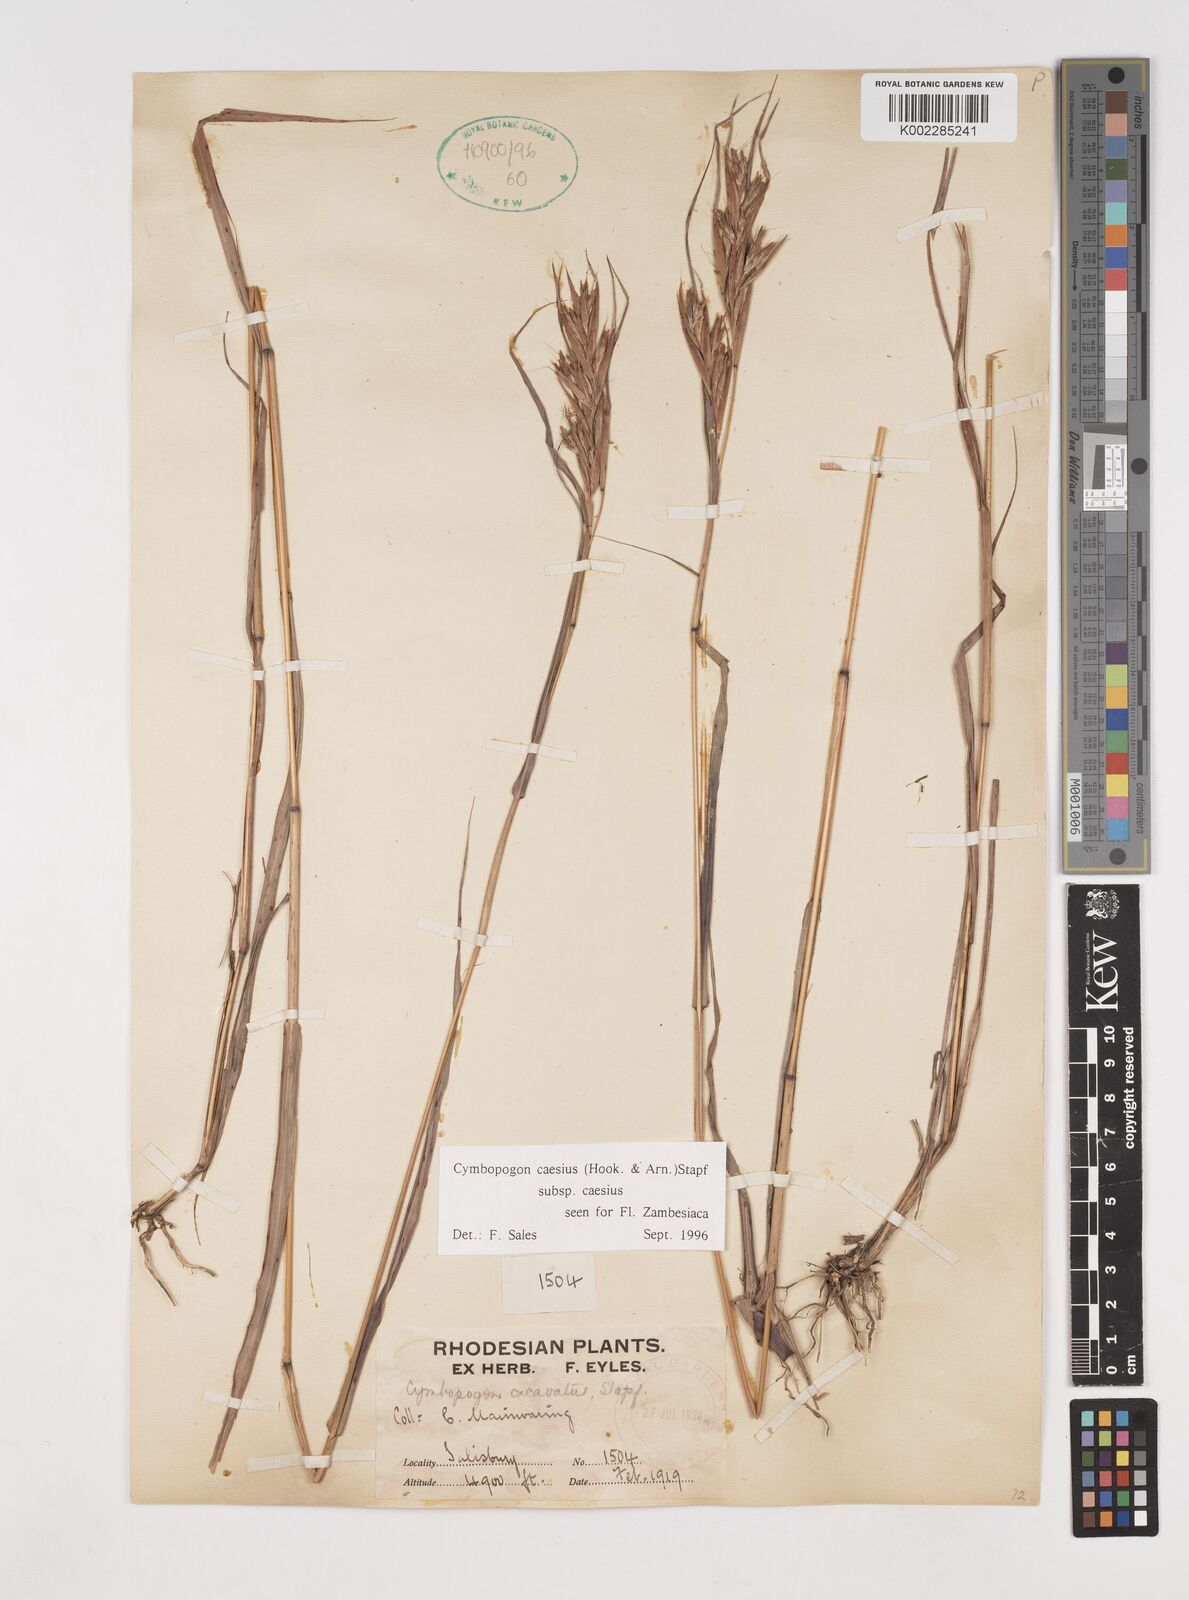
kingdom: Plantae
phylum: Tracheophyta
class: Liliopsida
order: Poales
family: Poaceae
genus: Cymbopogon
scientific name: Cymbopogon caesius
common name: Kachi grass
